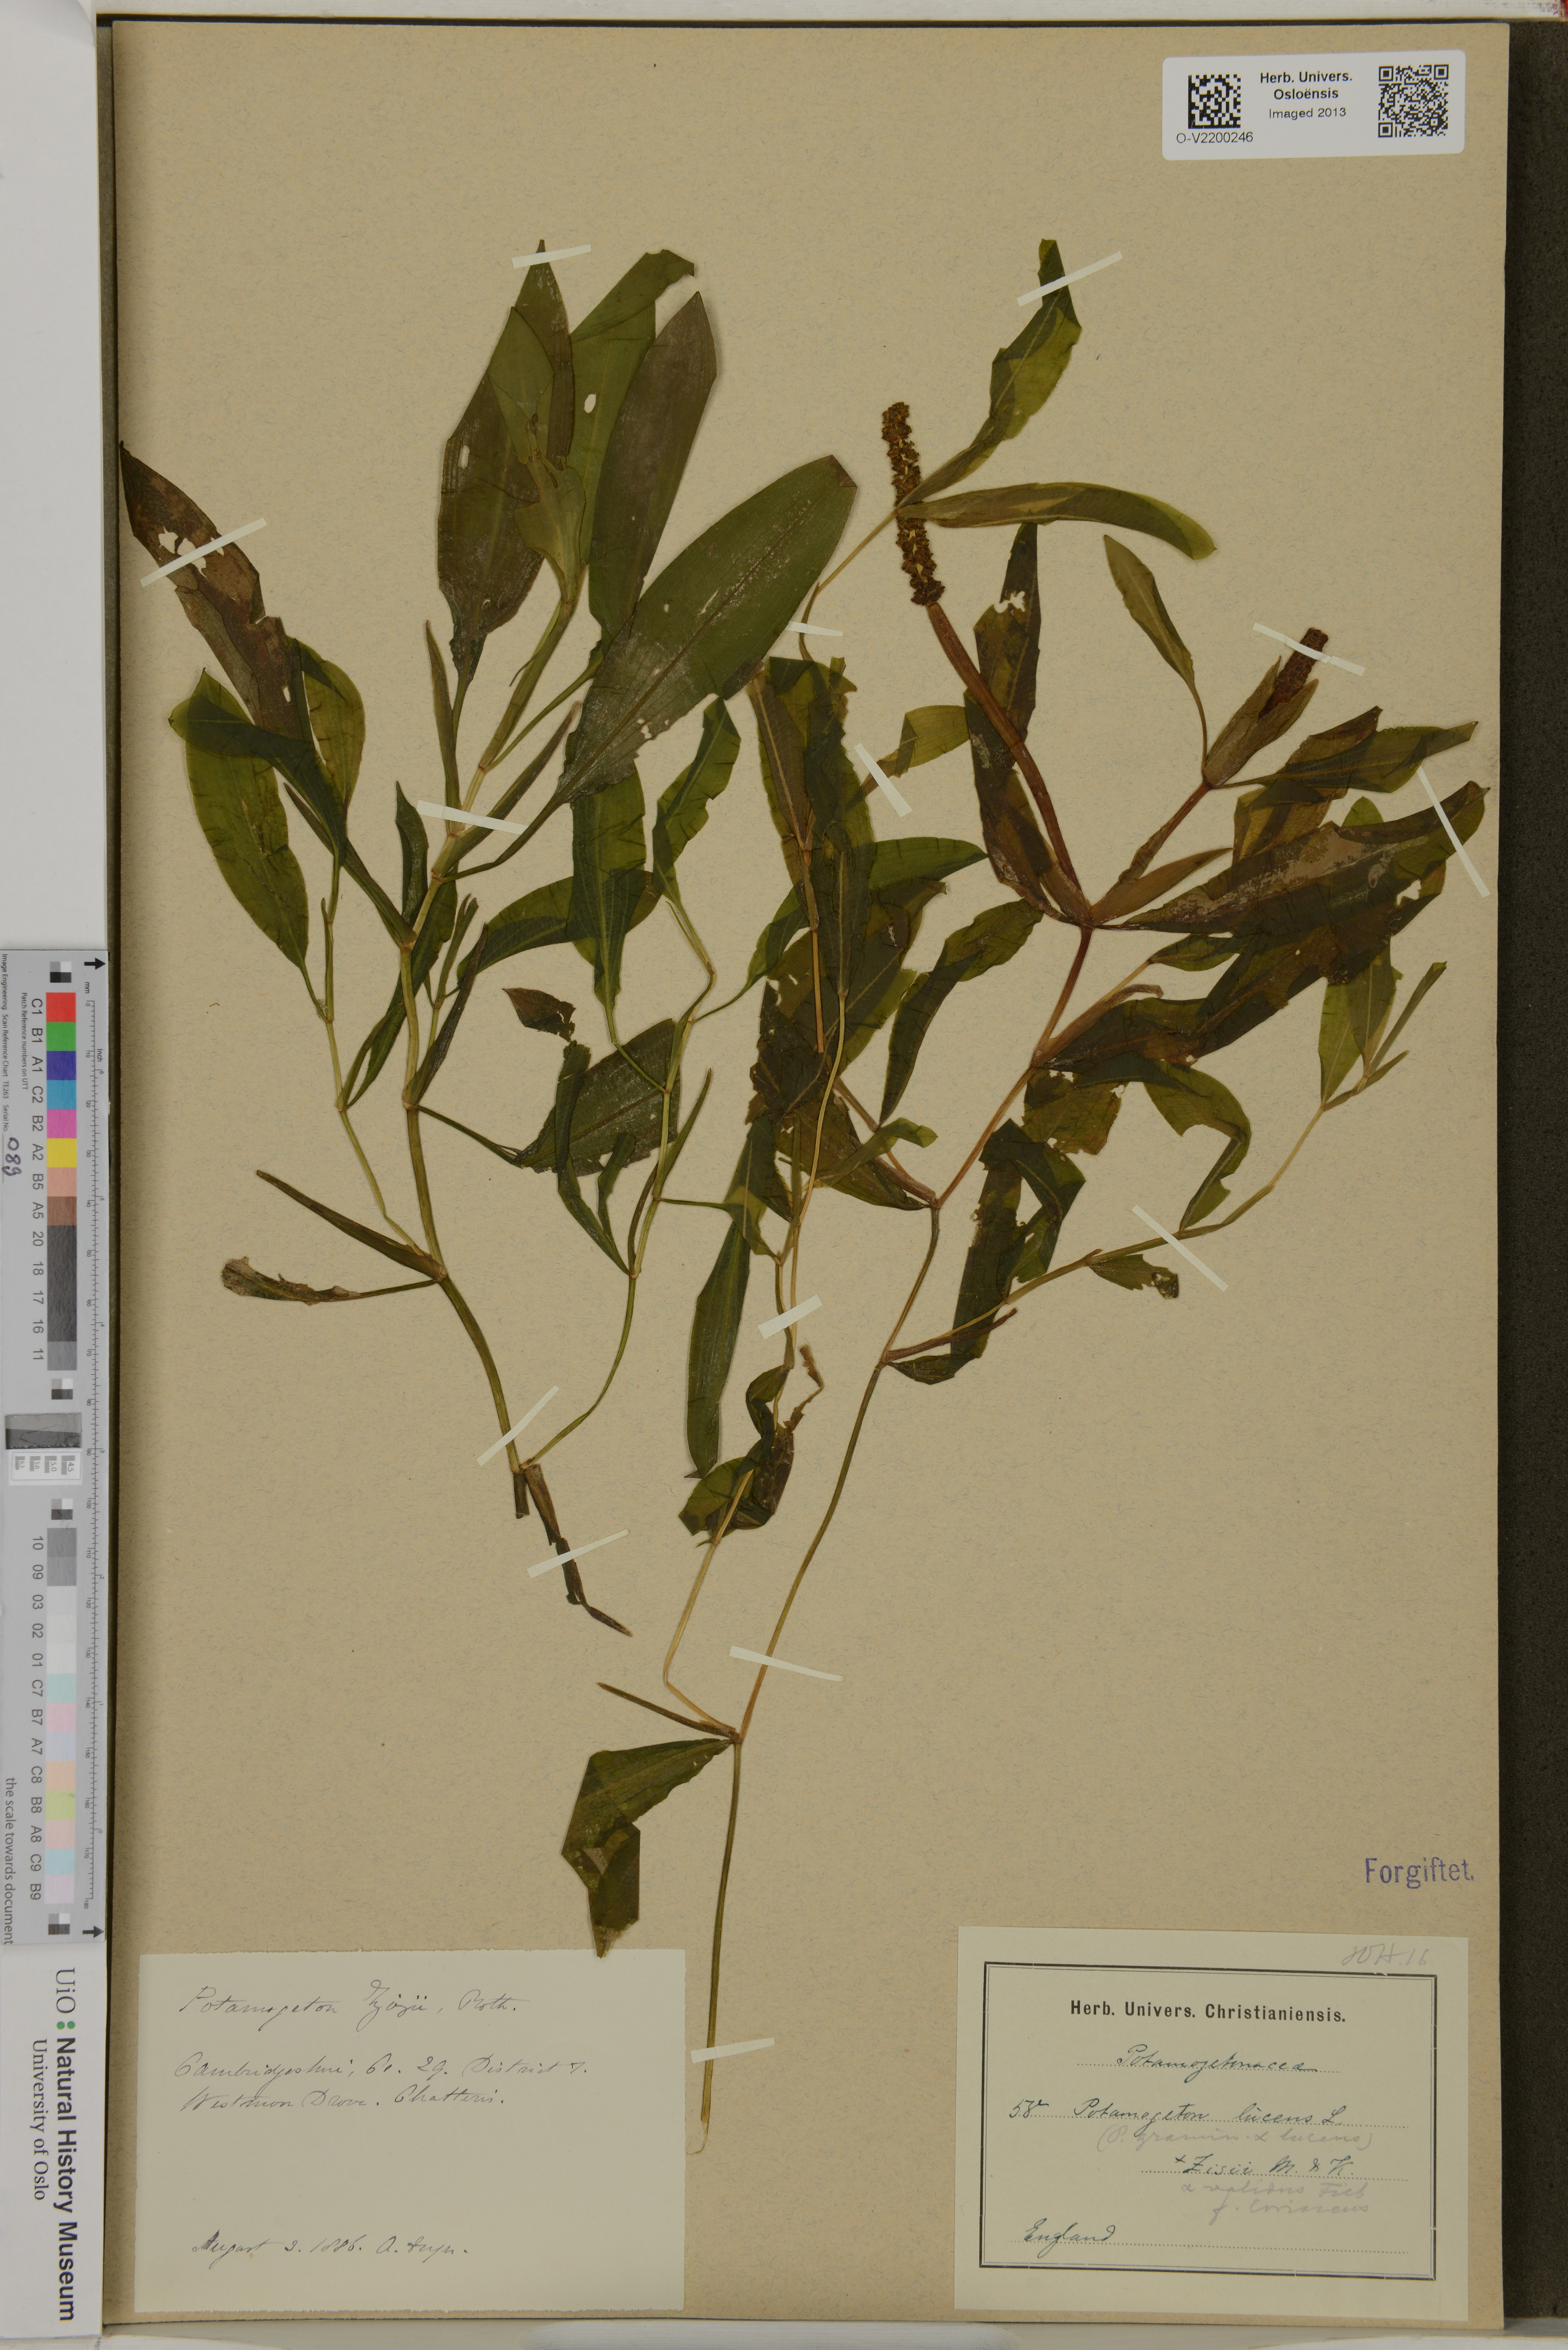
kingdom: Plantae
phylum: Tracheophyta
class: Liliopsida
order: Alismatales
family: Potamogetonaceae
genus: Potamogeton
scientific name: Potamogeton lucens
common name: Shining pondweed
